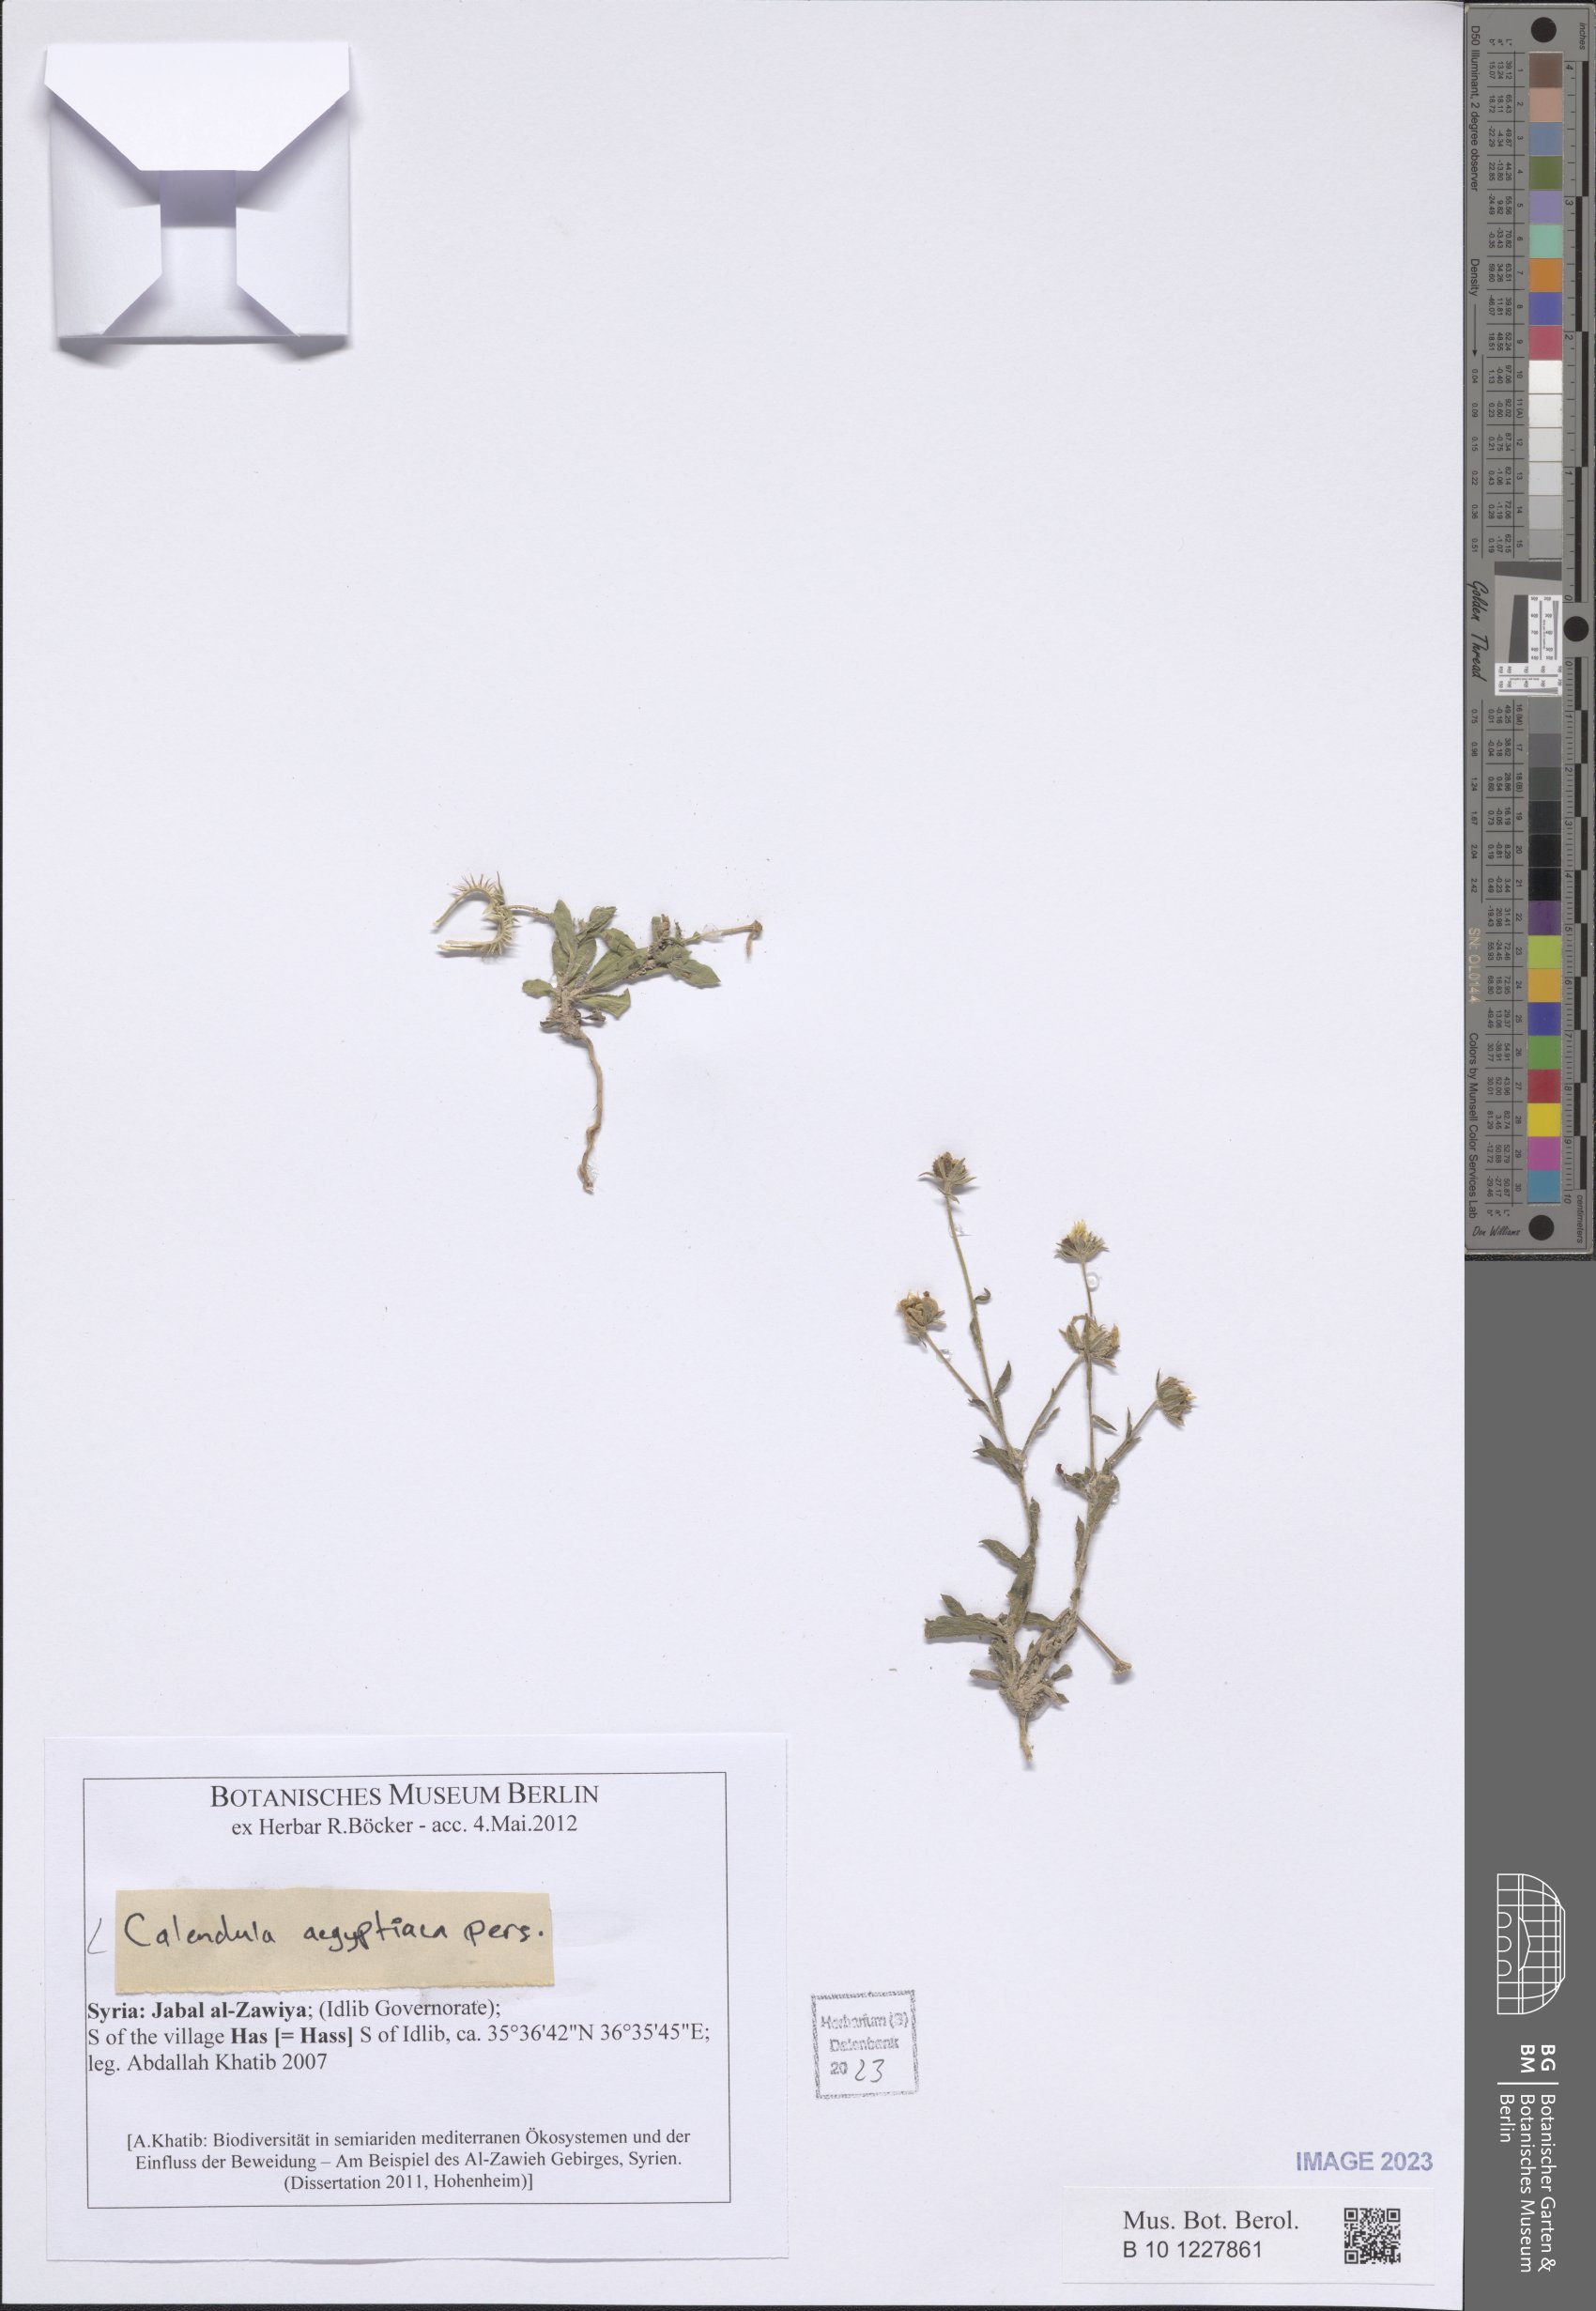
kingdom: Plantae
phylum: Tracheophyta
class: Magnoliopsida
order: Asterales
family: Asteraceae
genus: Calendula
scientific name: Calendula arvensis
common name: Field marigold
